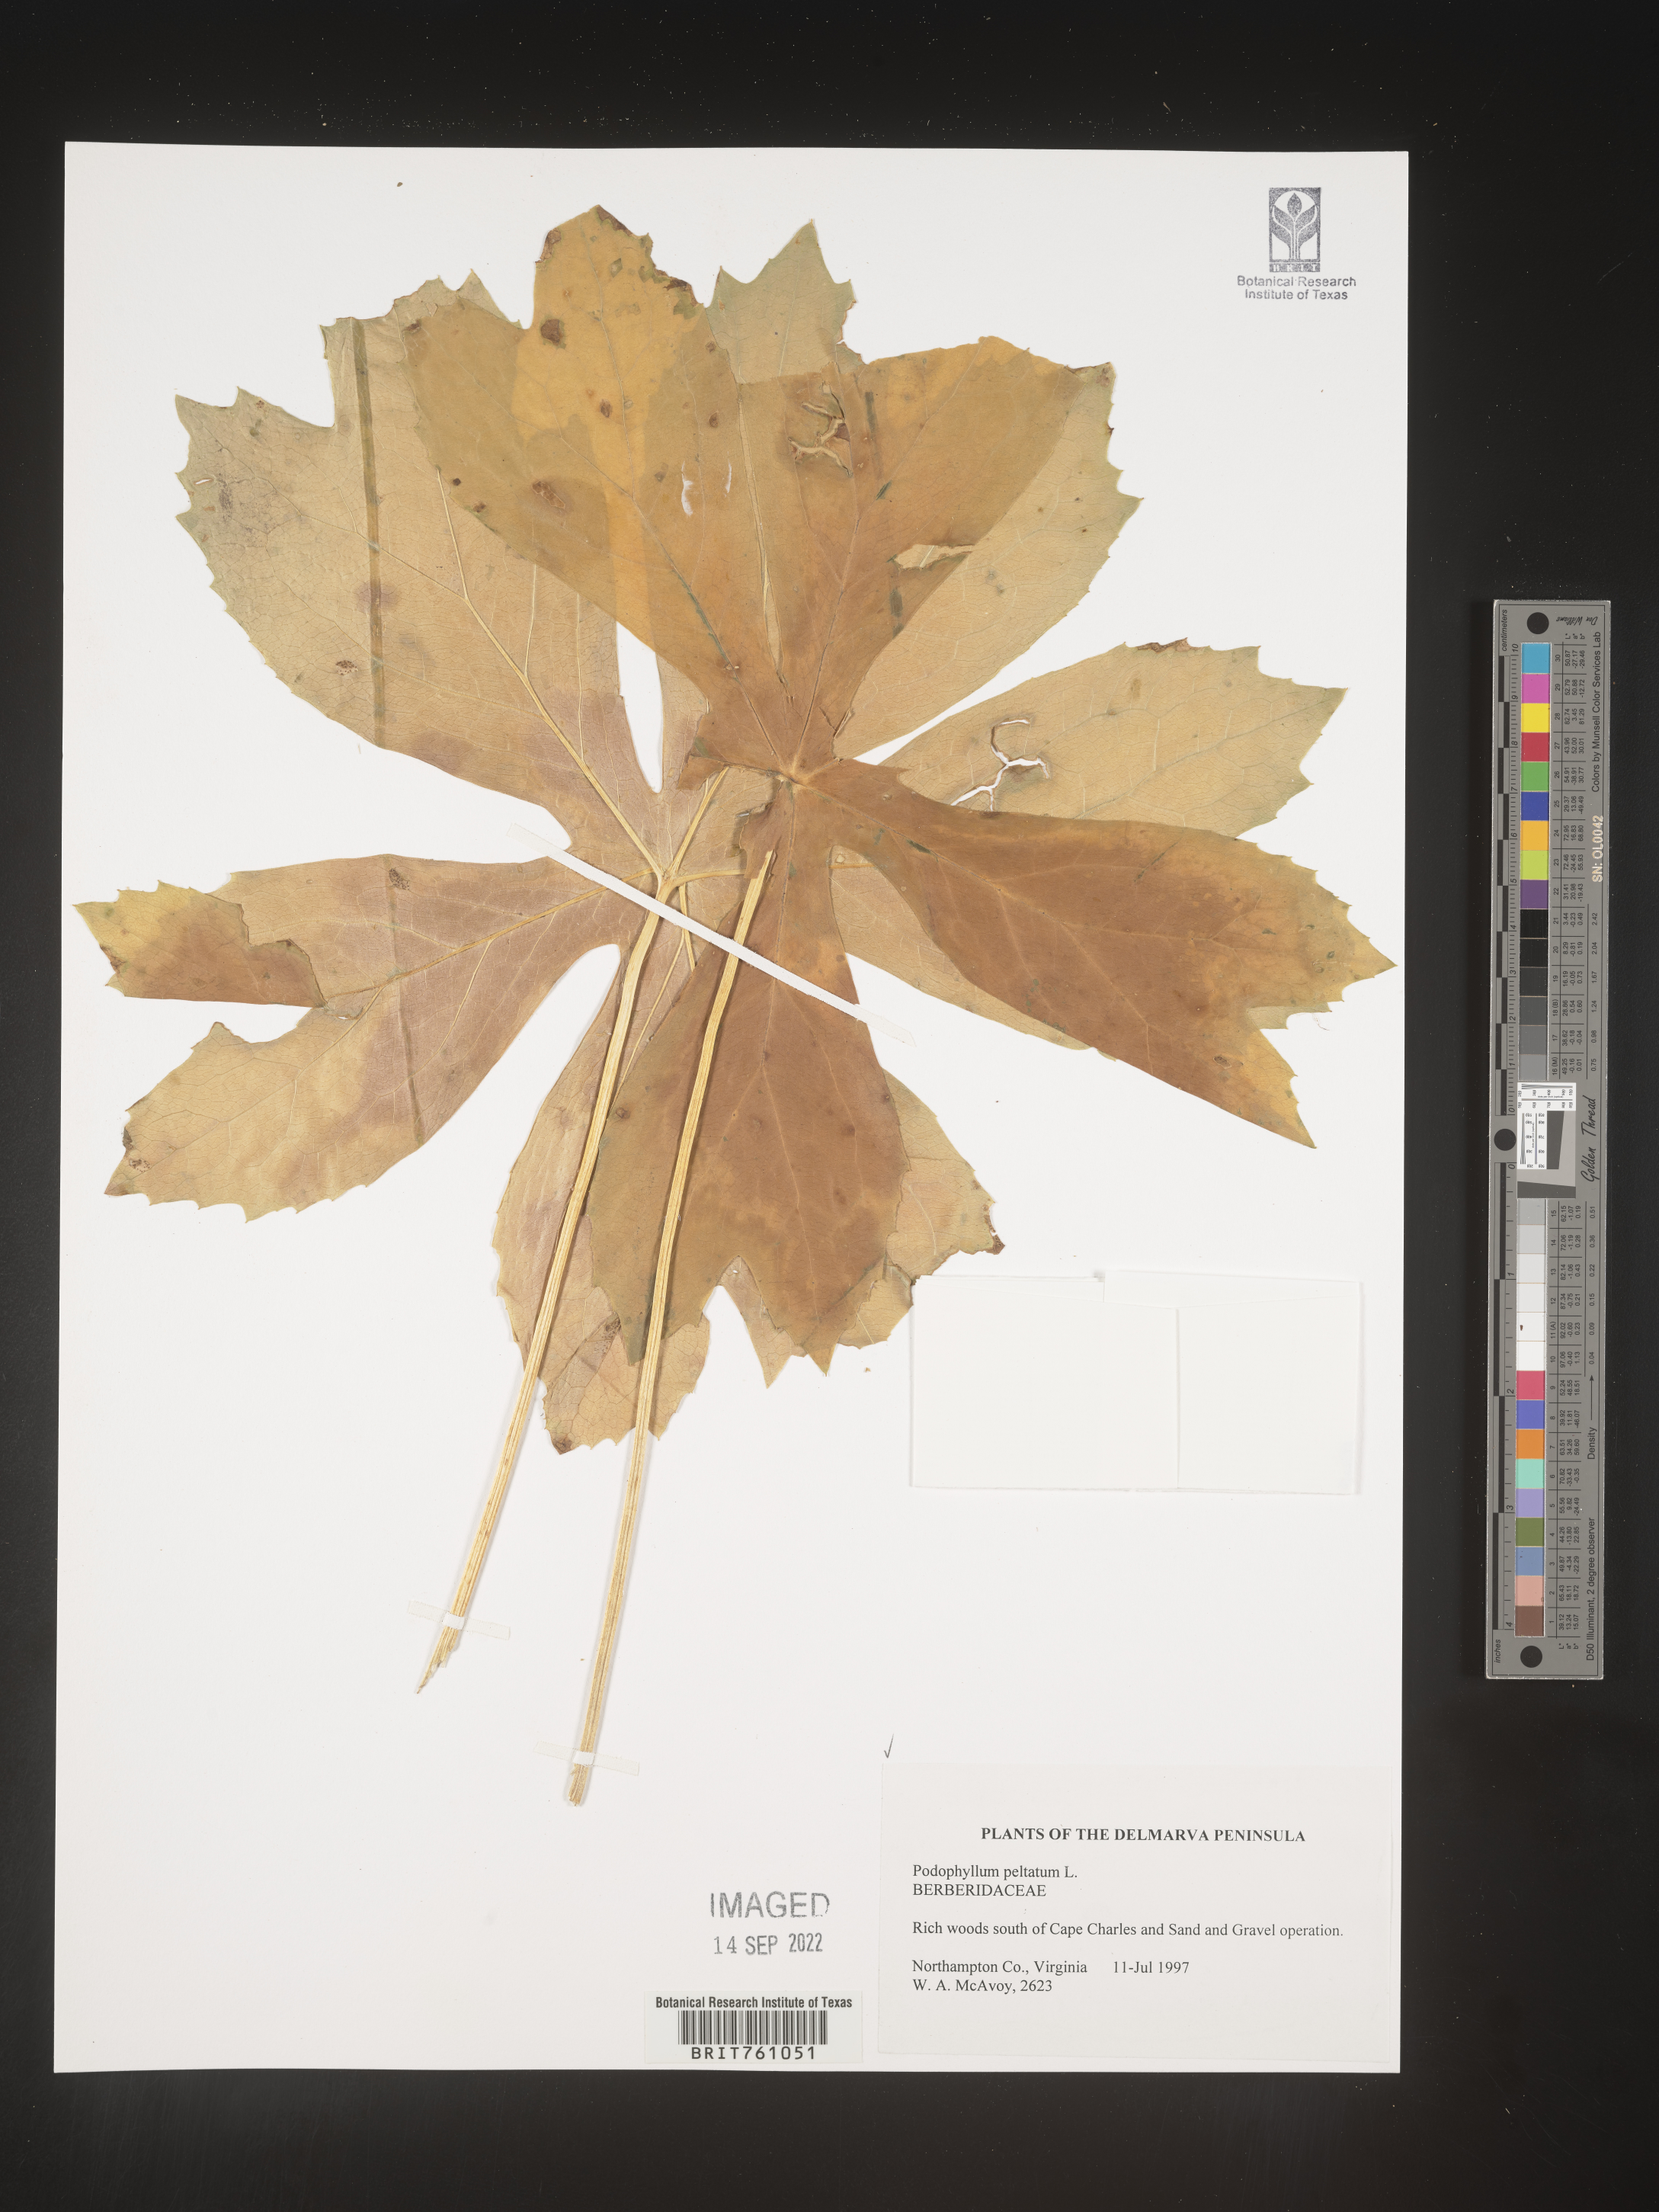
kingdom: Plantae
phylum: Tracheophyta
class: Magnoliopsida
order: Ranunculales
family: Berberidaceae
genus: Podophyllum
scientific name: Podophyllum peltatum
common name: Wild mandrake
